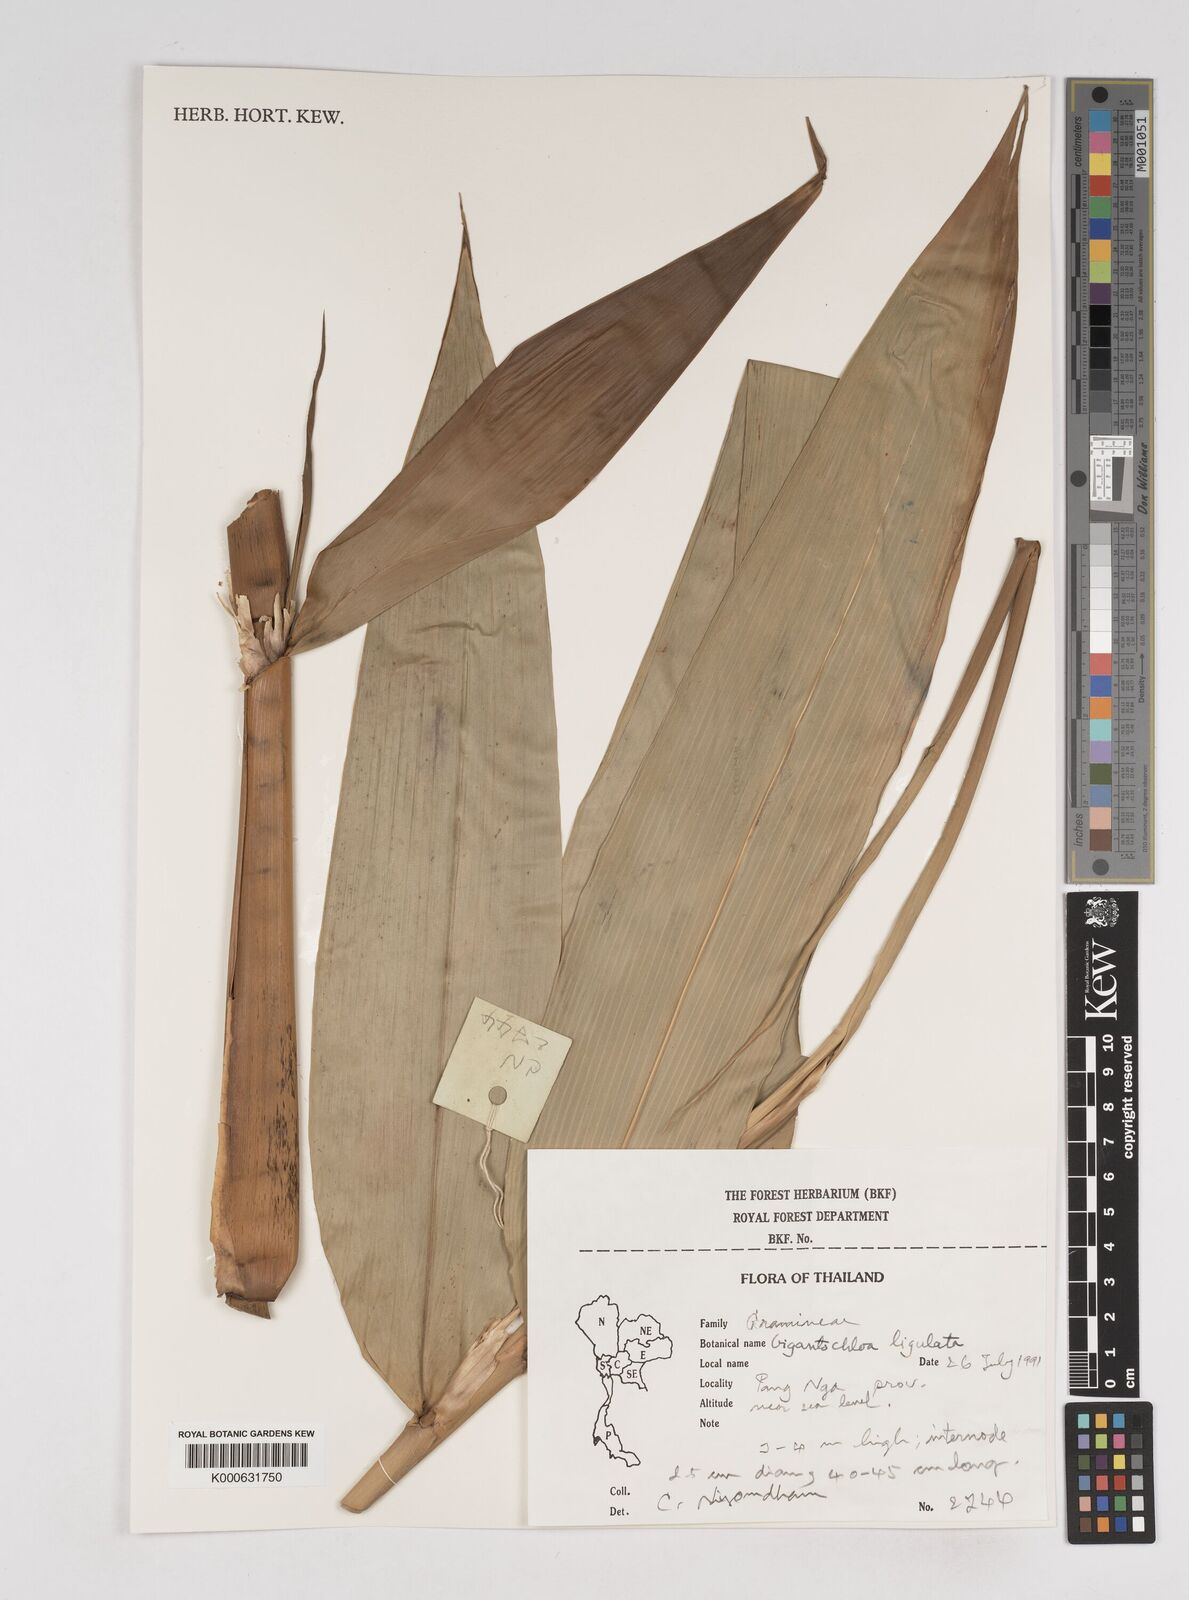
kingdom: Plantae
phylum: Tracheophyta
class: Liliopsida
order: Poales
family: Poaceae
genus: Gigantochloa
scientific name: Gigantochloa ligulata
